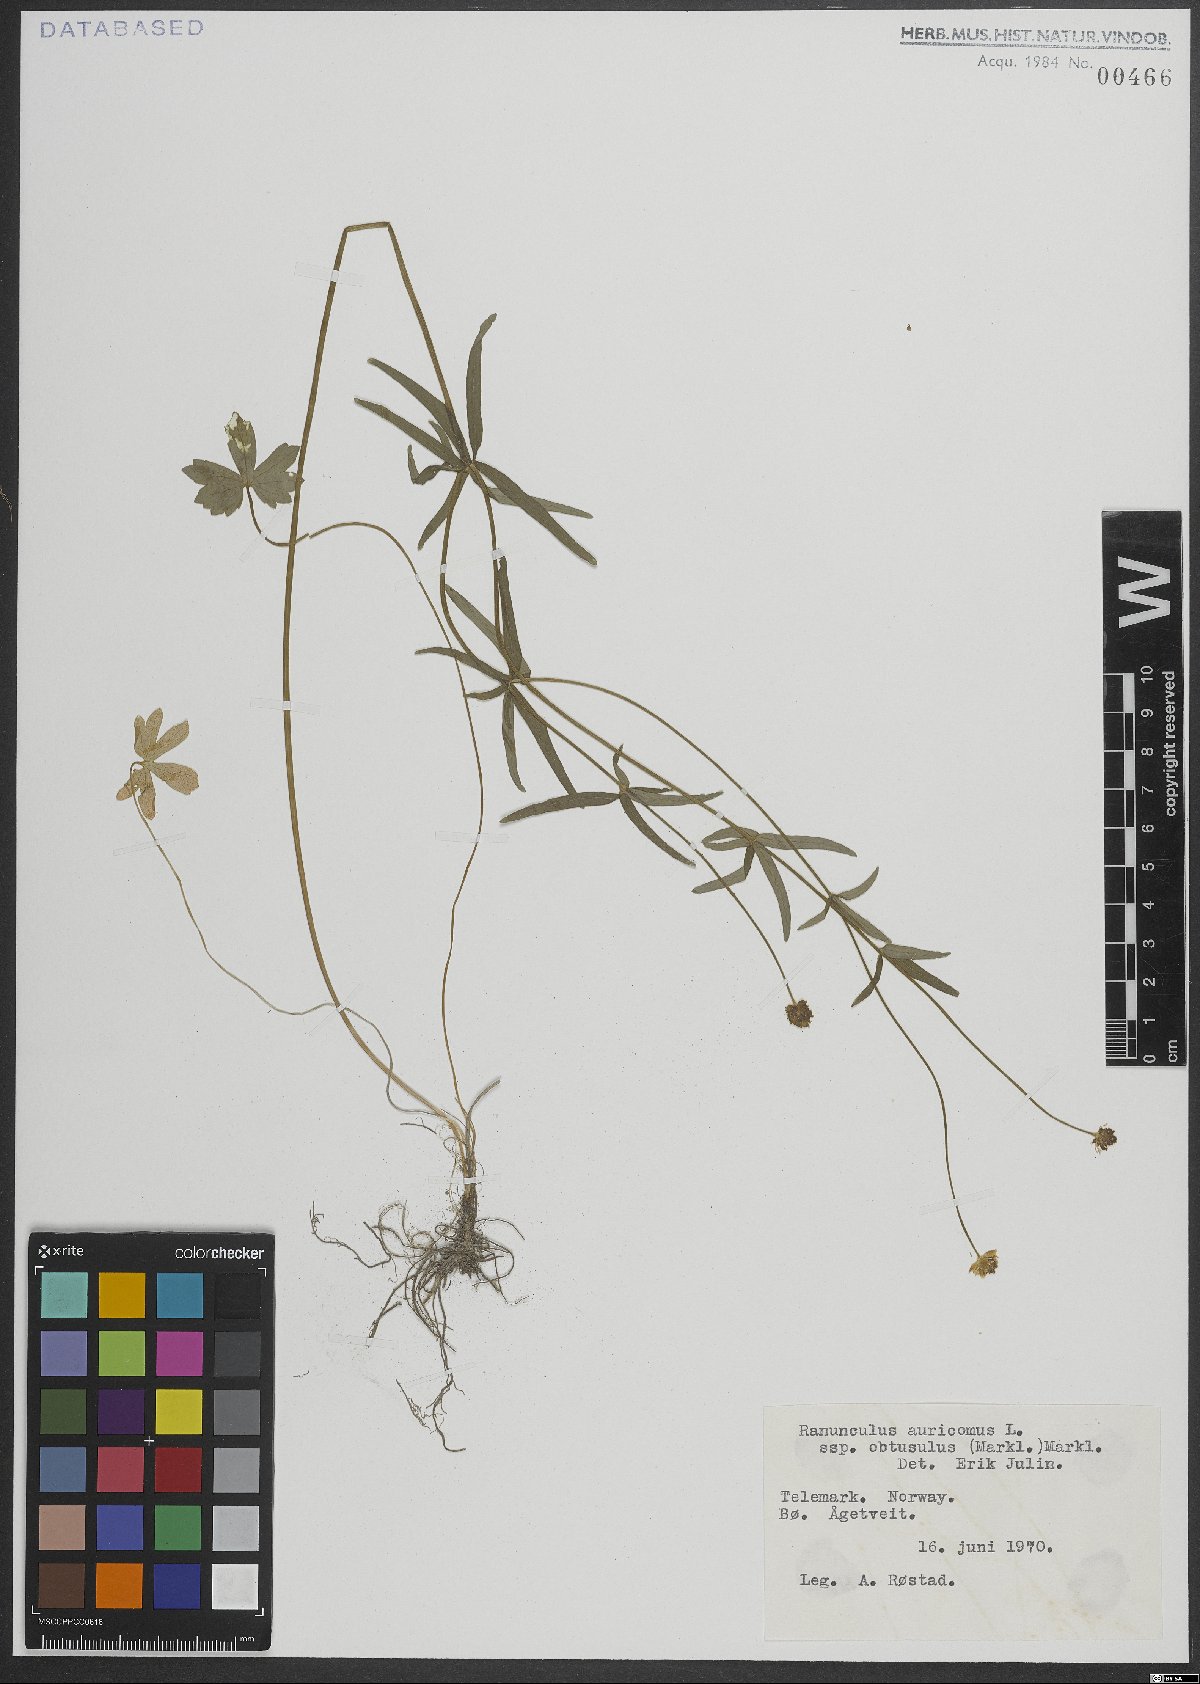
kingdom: Plantae
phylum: Tracheophyta
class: Magnoliopsida
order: Ranunculales
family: Ranunculaceae
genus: Ranunculus
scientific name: Ranunculus auricomus
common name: Goldilocks buttercup
